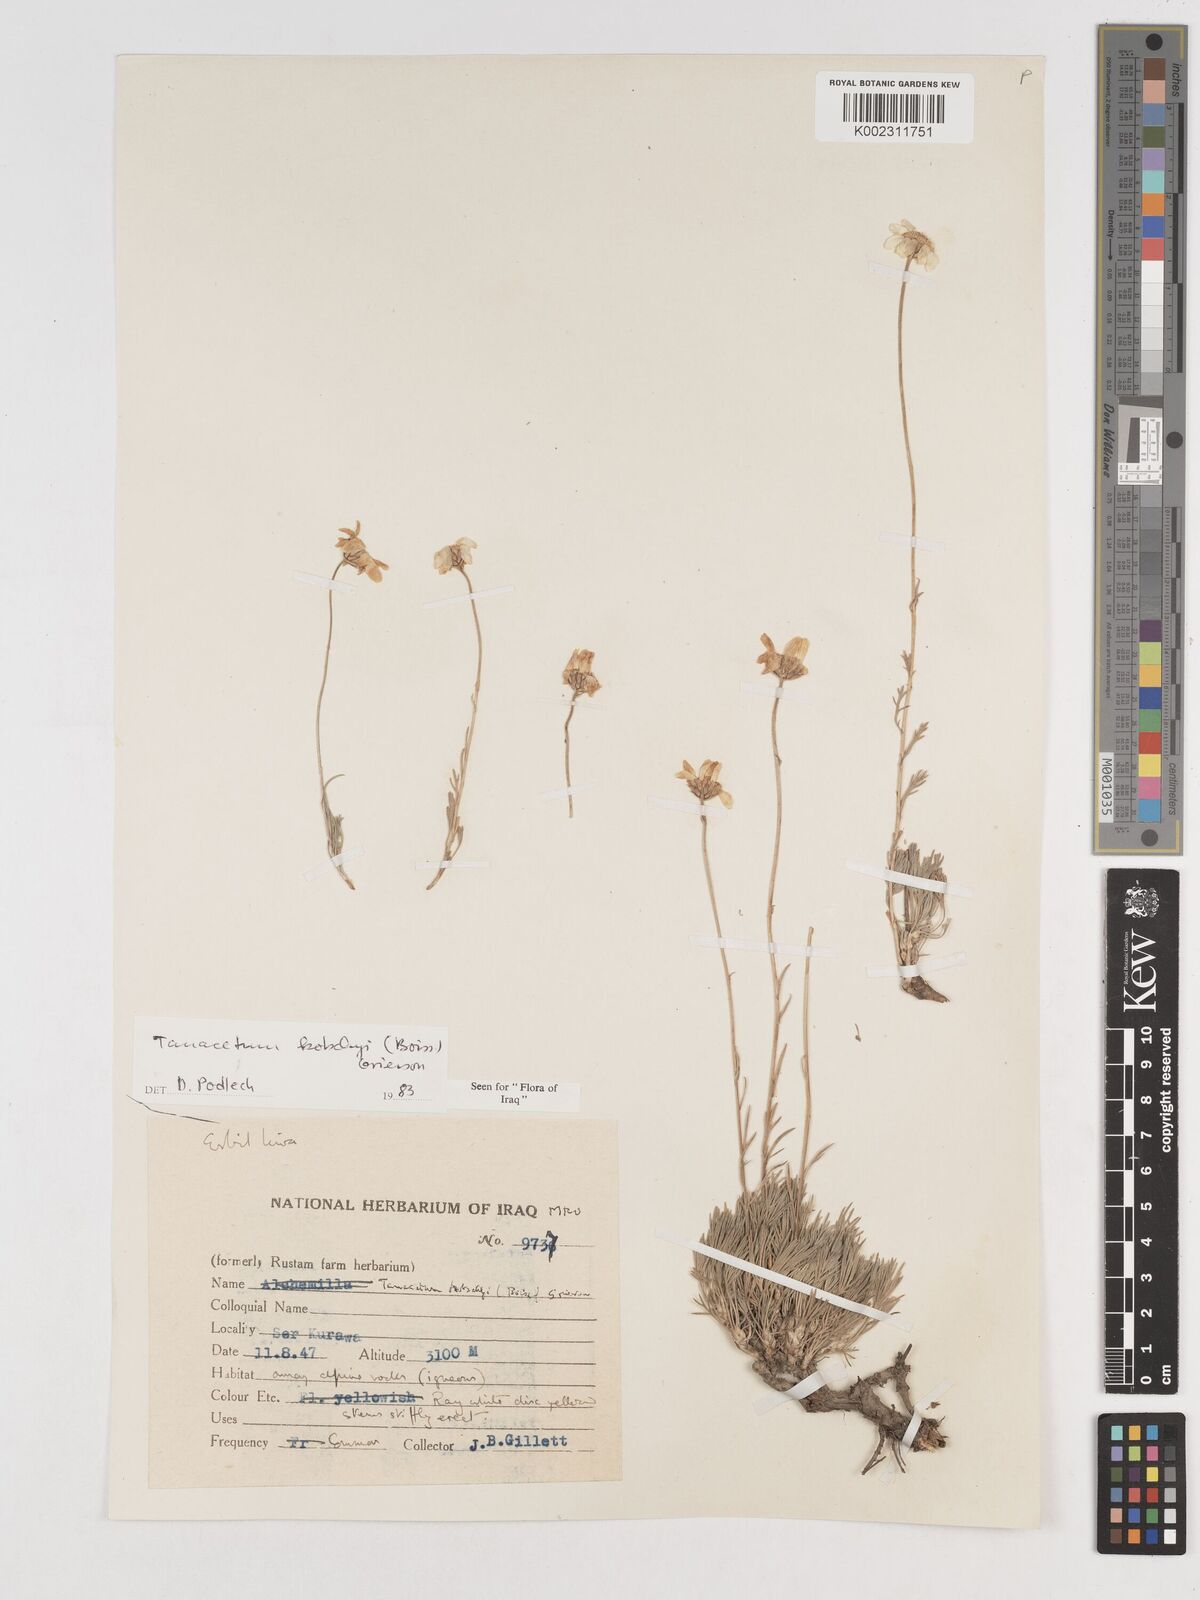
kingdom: Plantae
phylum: Tracheophyta
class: Magnoliopsida
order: Asterales
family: Asteraceae
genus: Tanacetum
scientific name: Tanacetum polycephalum
